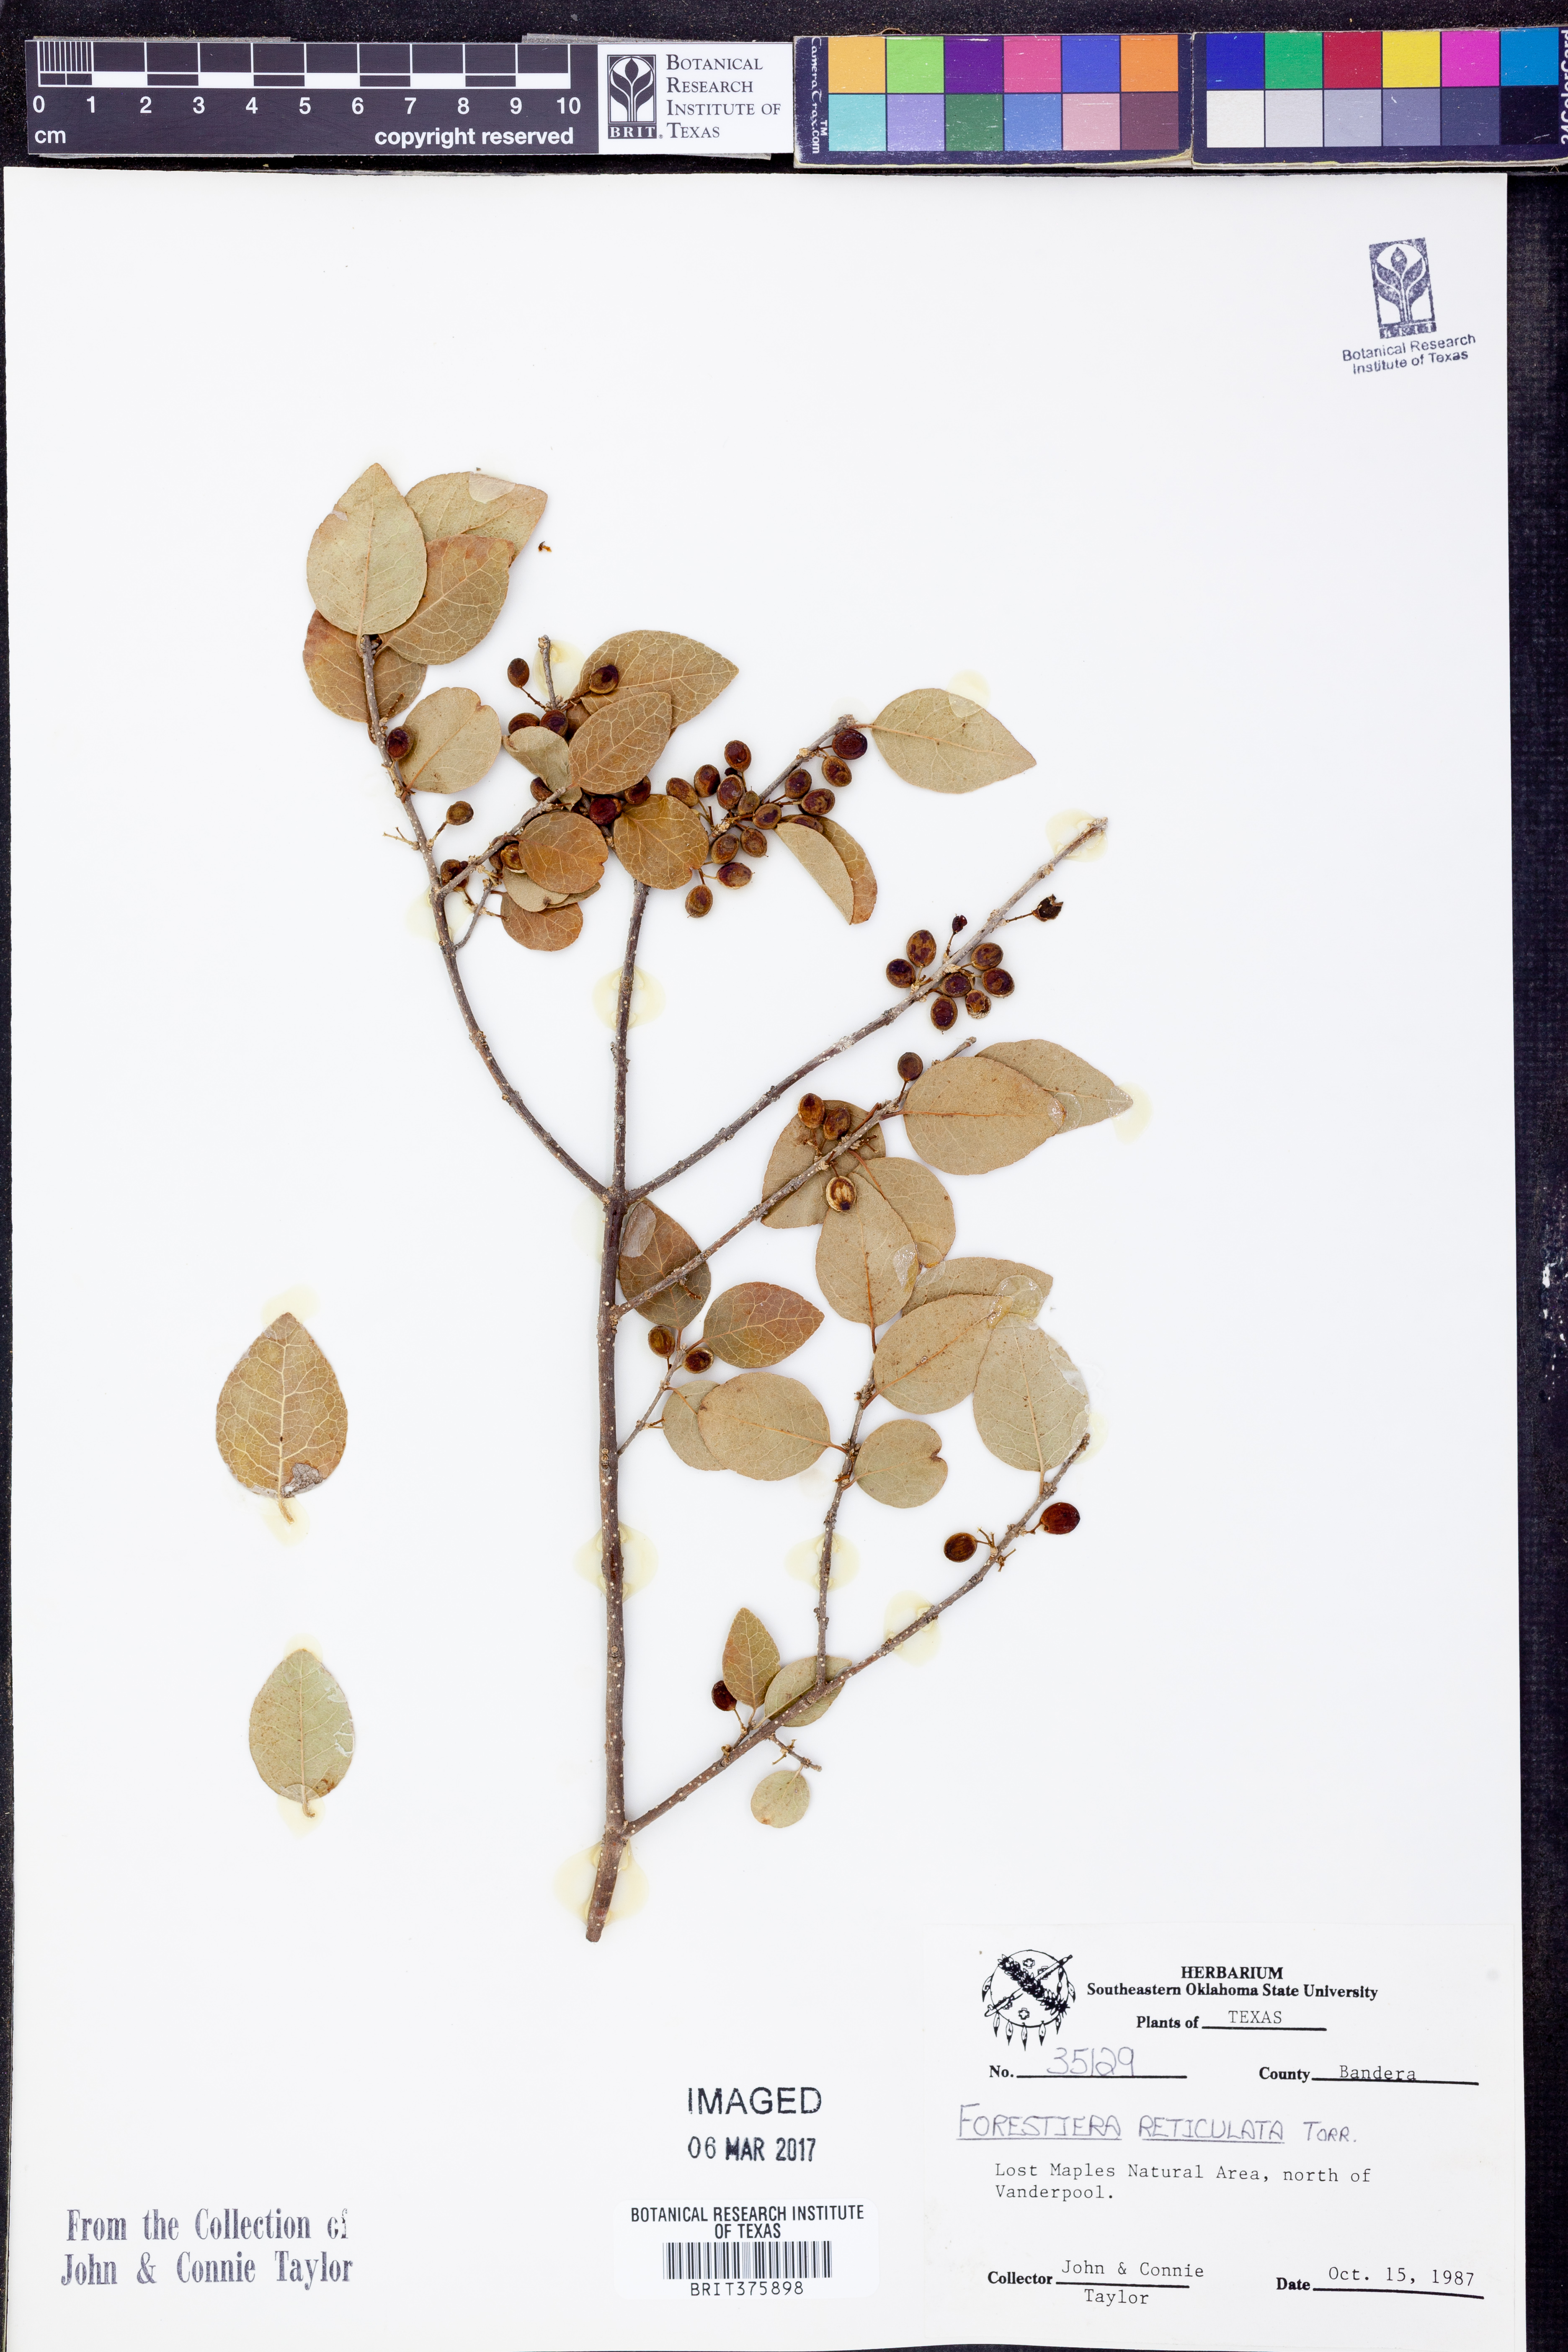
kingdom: Plantae
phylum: Tracheophyta
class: Magnoliopsida
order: Lamiales
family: Oleaceae
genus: Forestiera
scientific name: Forestiera reticulata
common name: Netleaf swamp-privet
